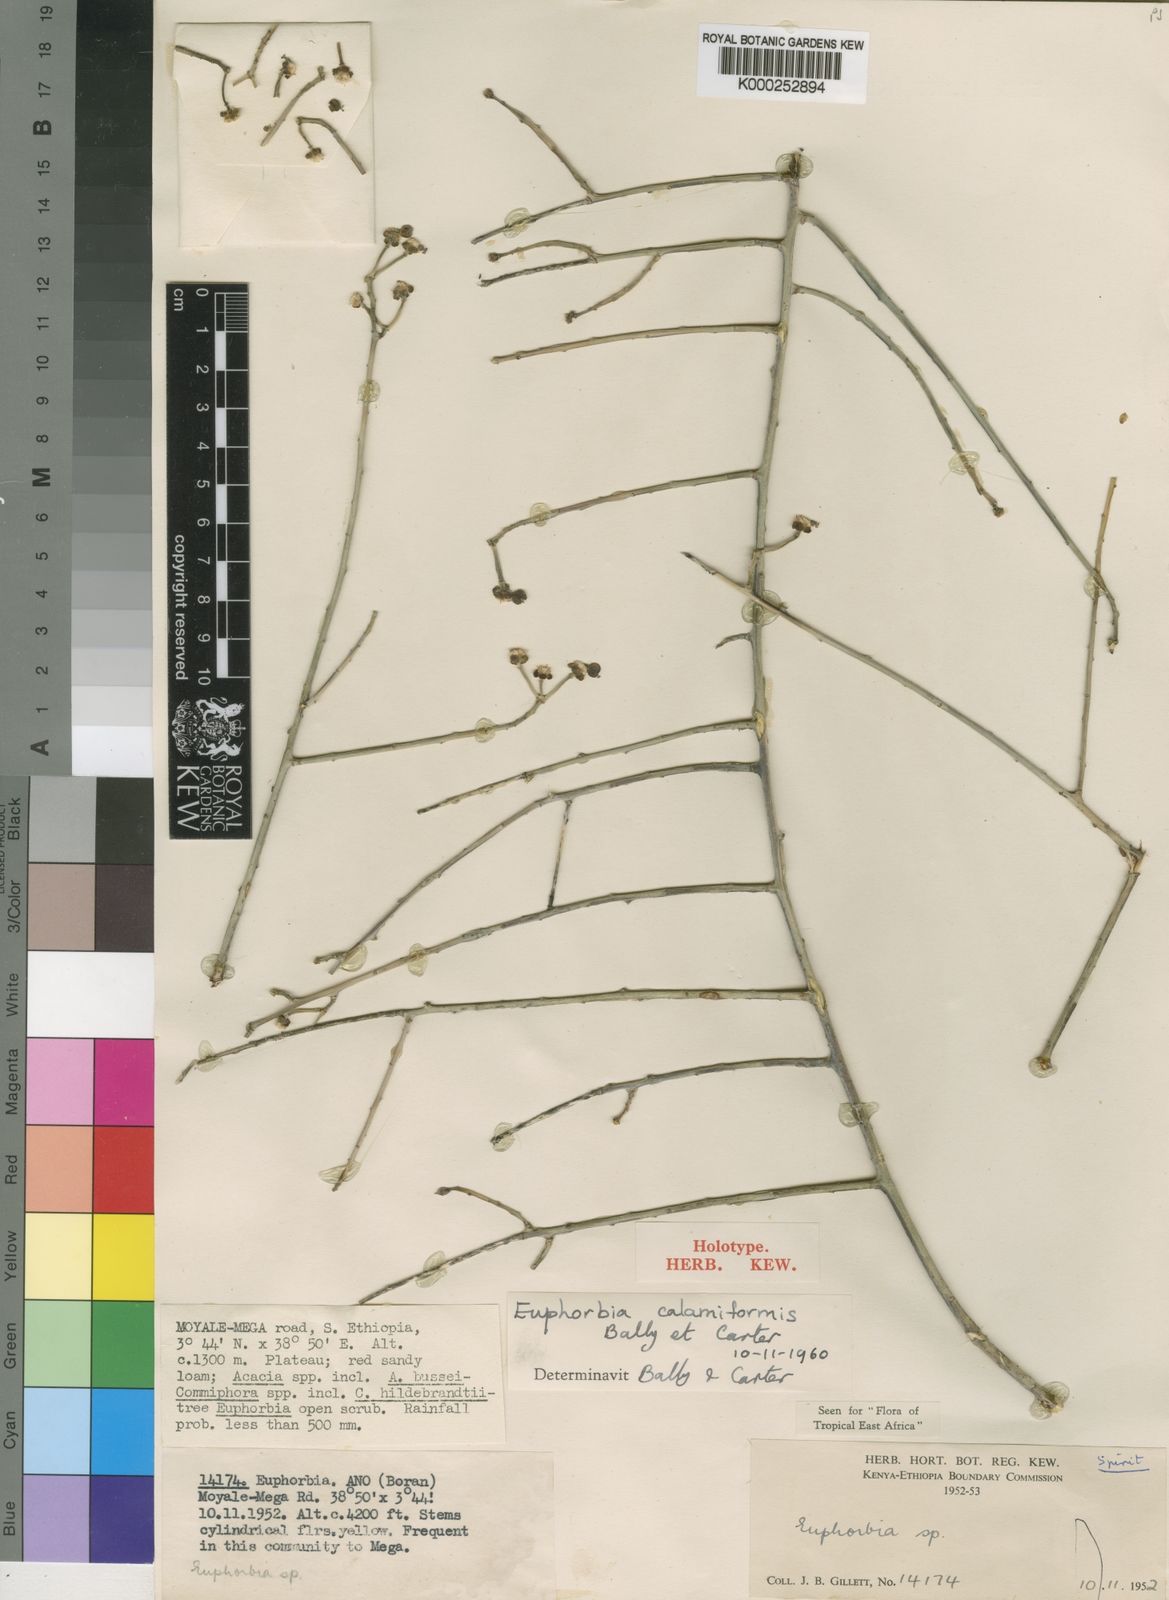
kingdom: Plantae
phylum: Tracheophyta
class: Magnoliopsida
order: Malpighiales
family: Euphorbiaceae
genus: Euphorbia
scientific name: Euphorbia calamiformis
